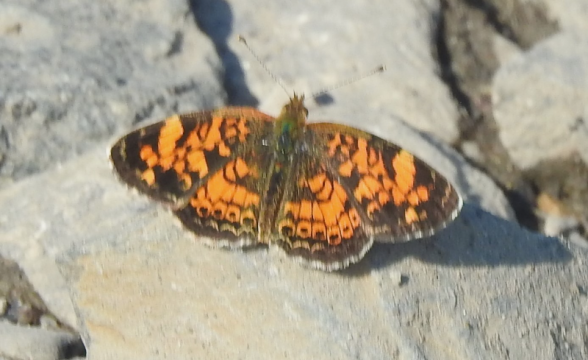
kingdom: Animalia
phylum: Arthropoda
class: Insecta
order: Lepidoptera
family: Nymphalidae
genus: Phyciodes
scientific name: Phyciodes tharos
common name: Pearl Crescent
